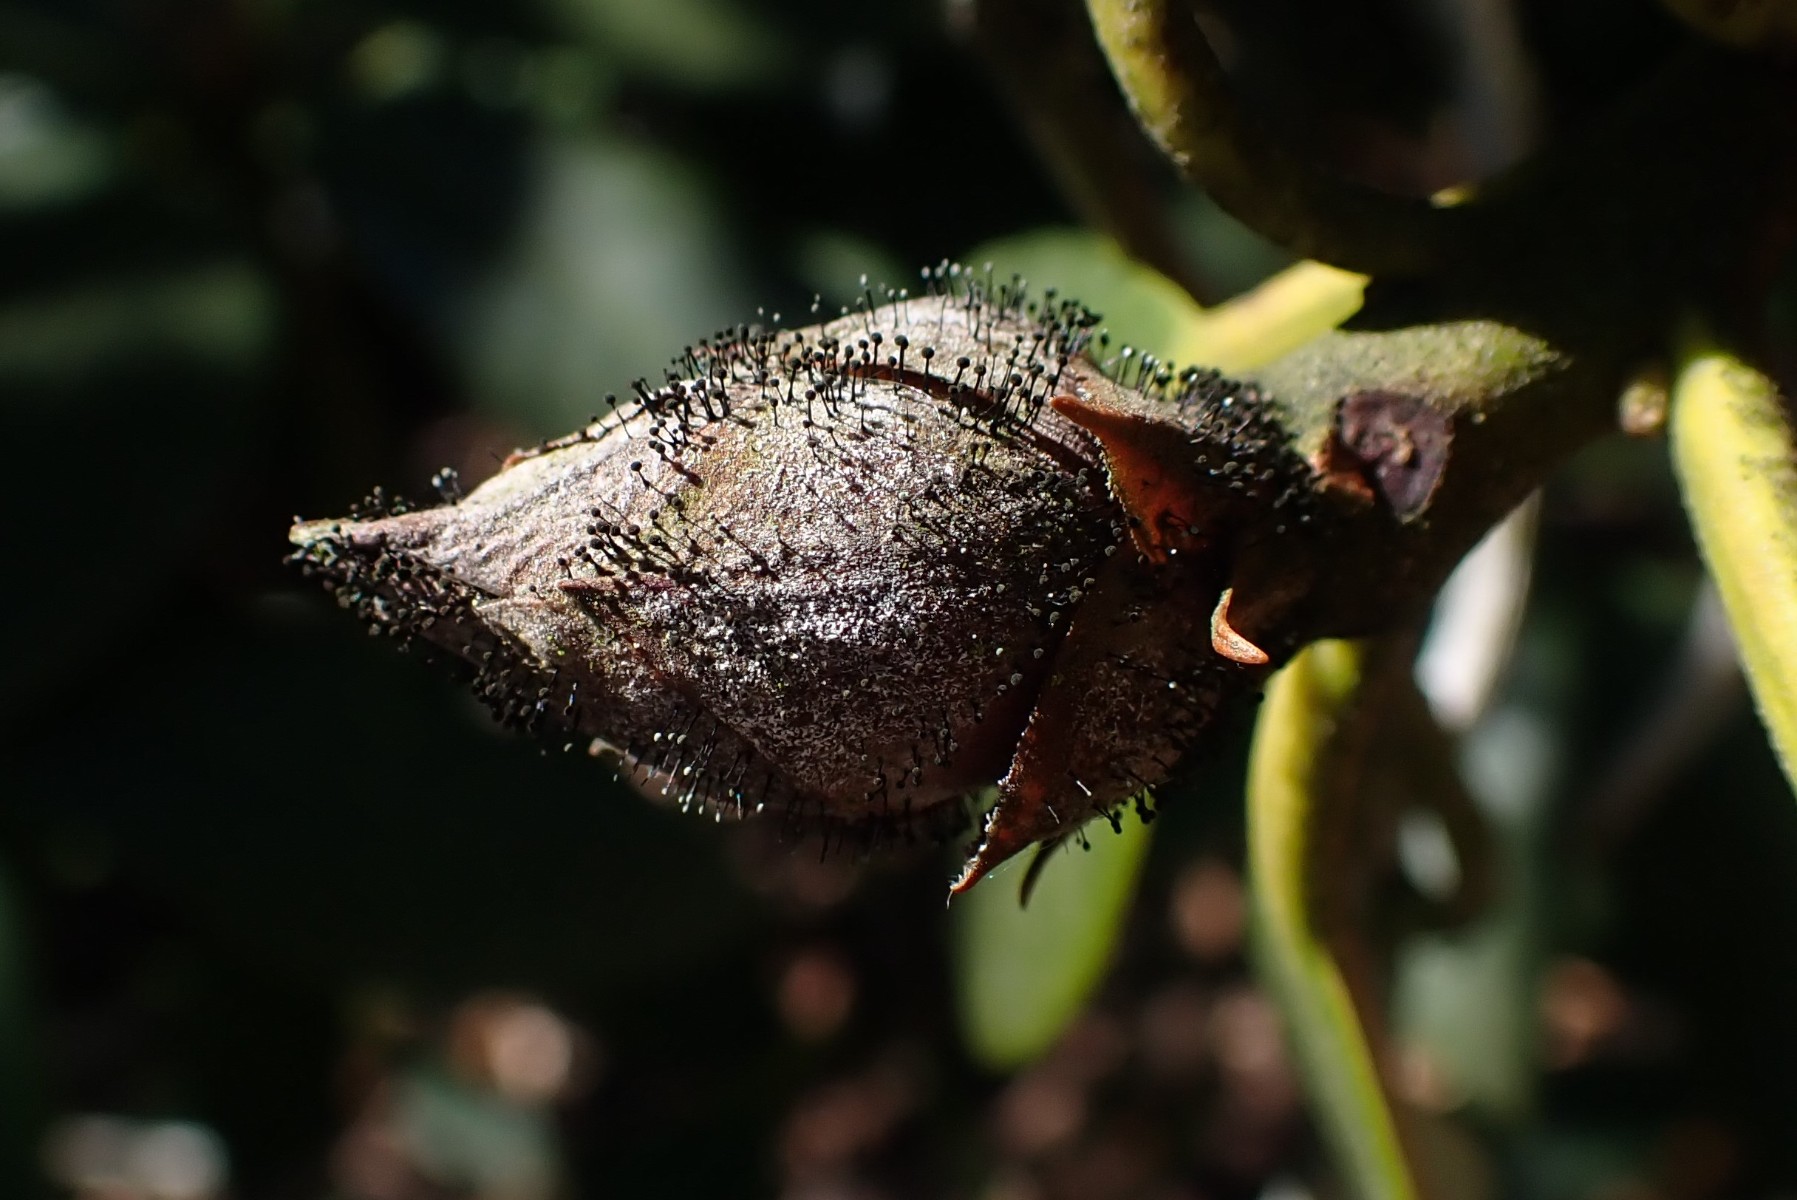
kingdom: Fungi
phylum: Ascomycota
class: Dothideomycetes
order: Pleosporales
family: Melanommataceae
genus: Seifertia
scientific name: Seifertia azaleae
